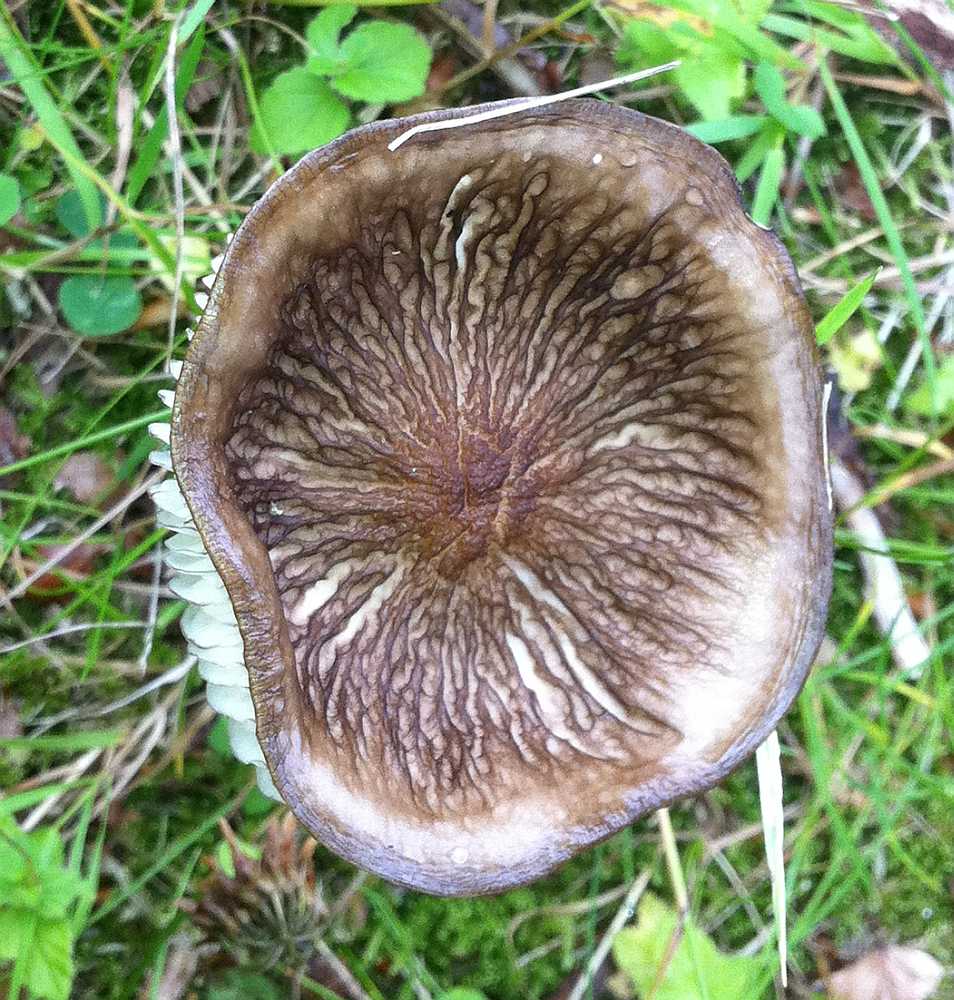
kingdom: Fungi
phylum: Basidiomycota
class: Agaricomycetes
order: Agaricales
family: Physalacriaceae
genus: Hymenopellis
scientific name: Hymenopellis radicata
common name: almindelig pælerodshat
